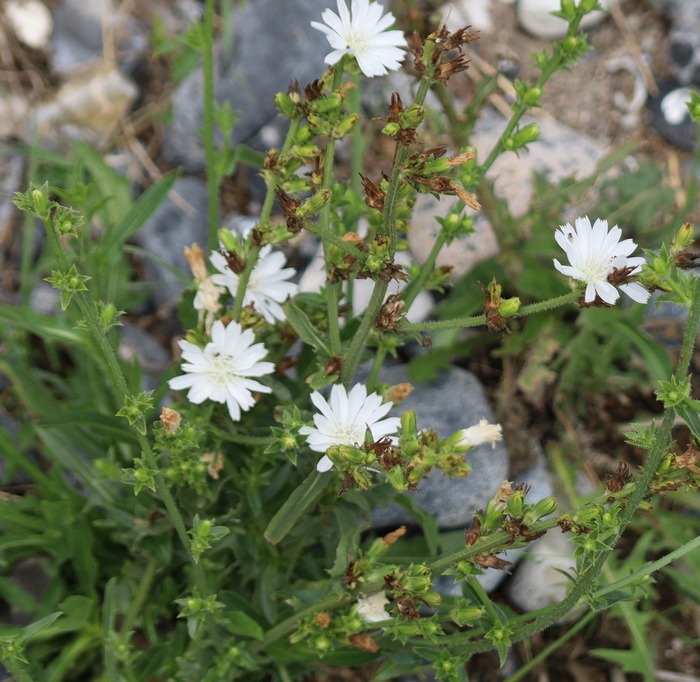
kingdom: Plantae
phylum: Tracheophyta
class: Magnoliopsida
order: Asterales
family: Asteraceae
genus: Cichorium
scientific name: Cichorium intybus
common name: Cikorie
